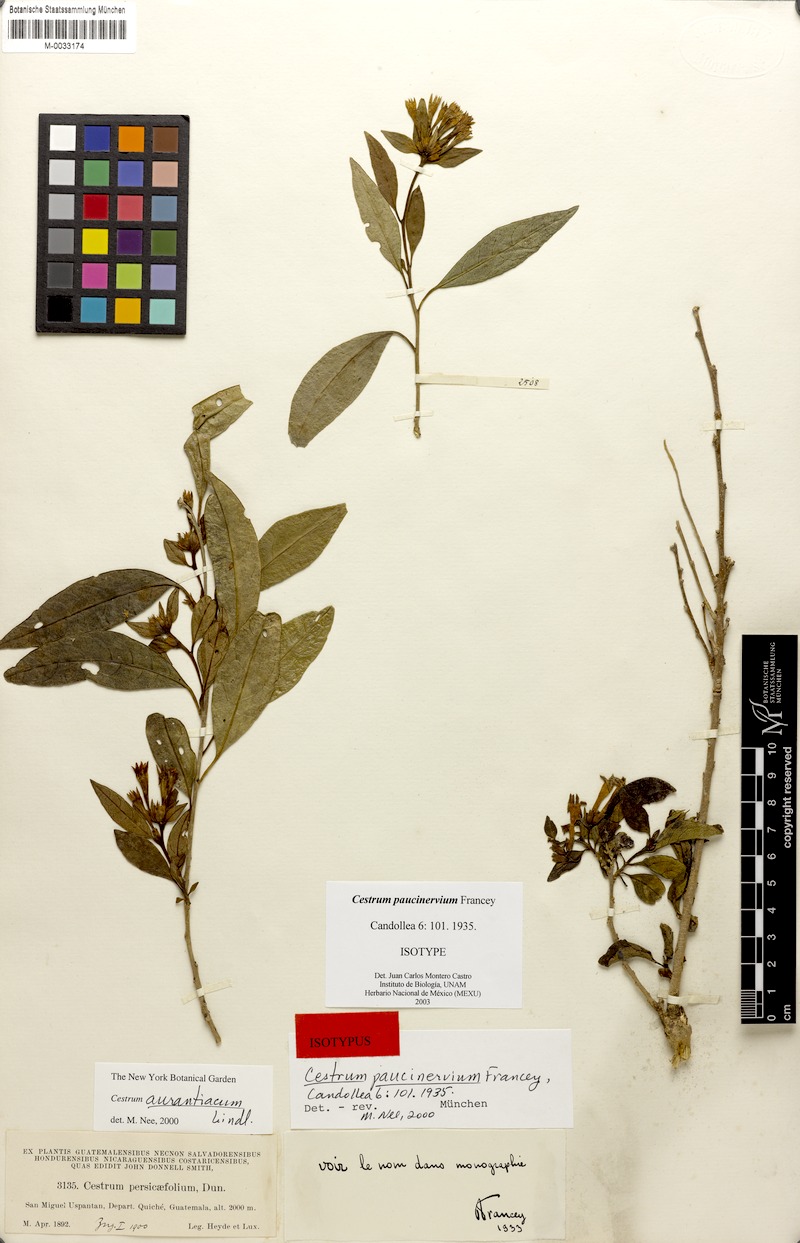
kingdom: Plantae
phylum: Tracheophyta
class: Magnoliopsida
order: Solanales
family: Solanaceae
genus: Cestrum
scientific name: Cestrum aurantiacum
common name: Orange cestrum
